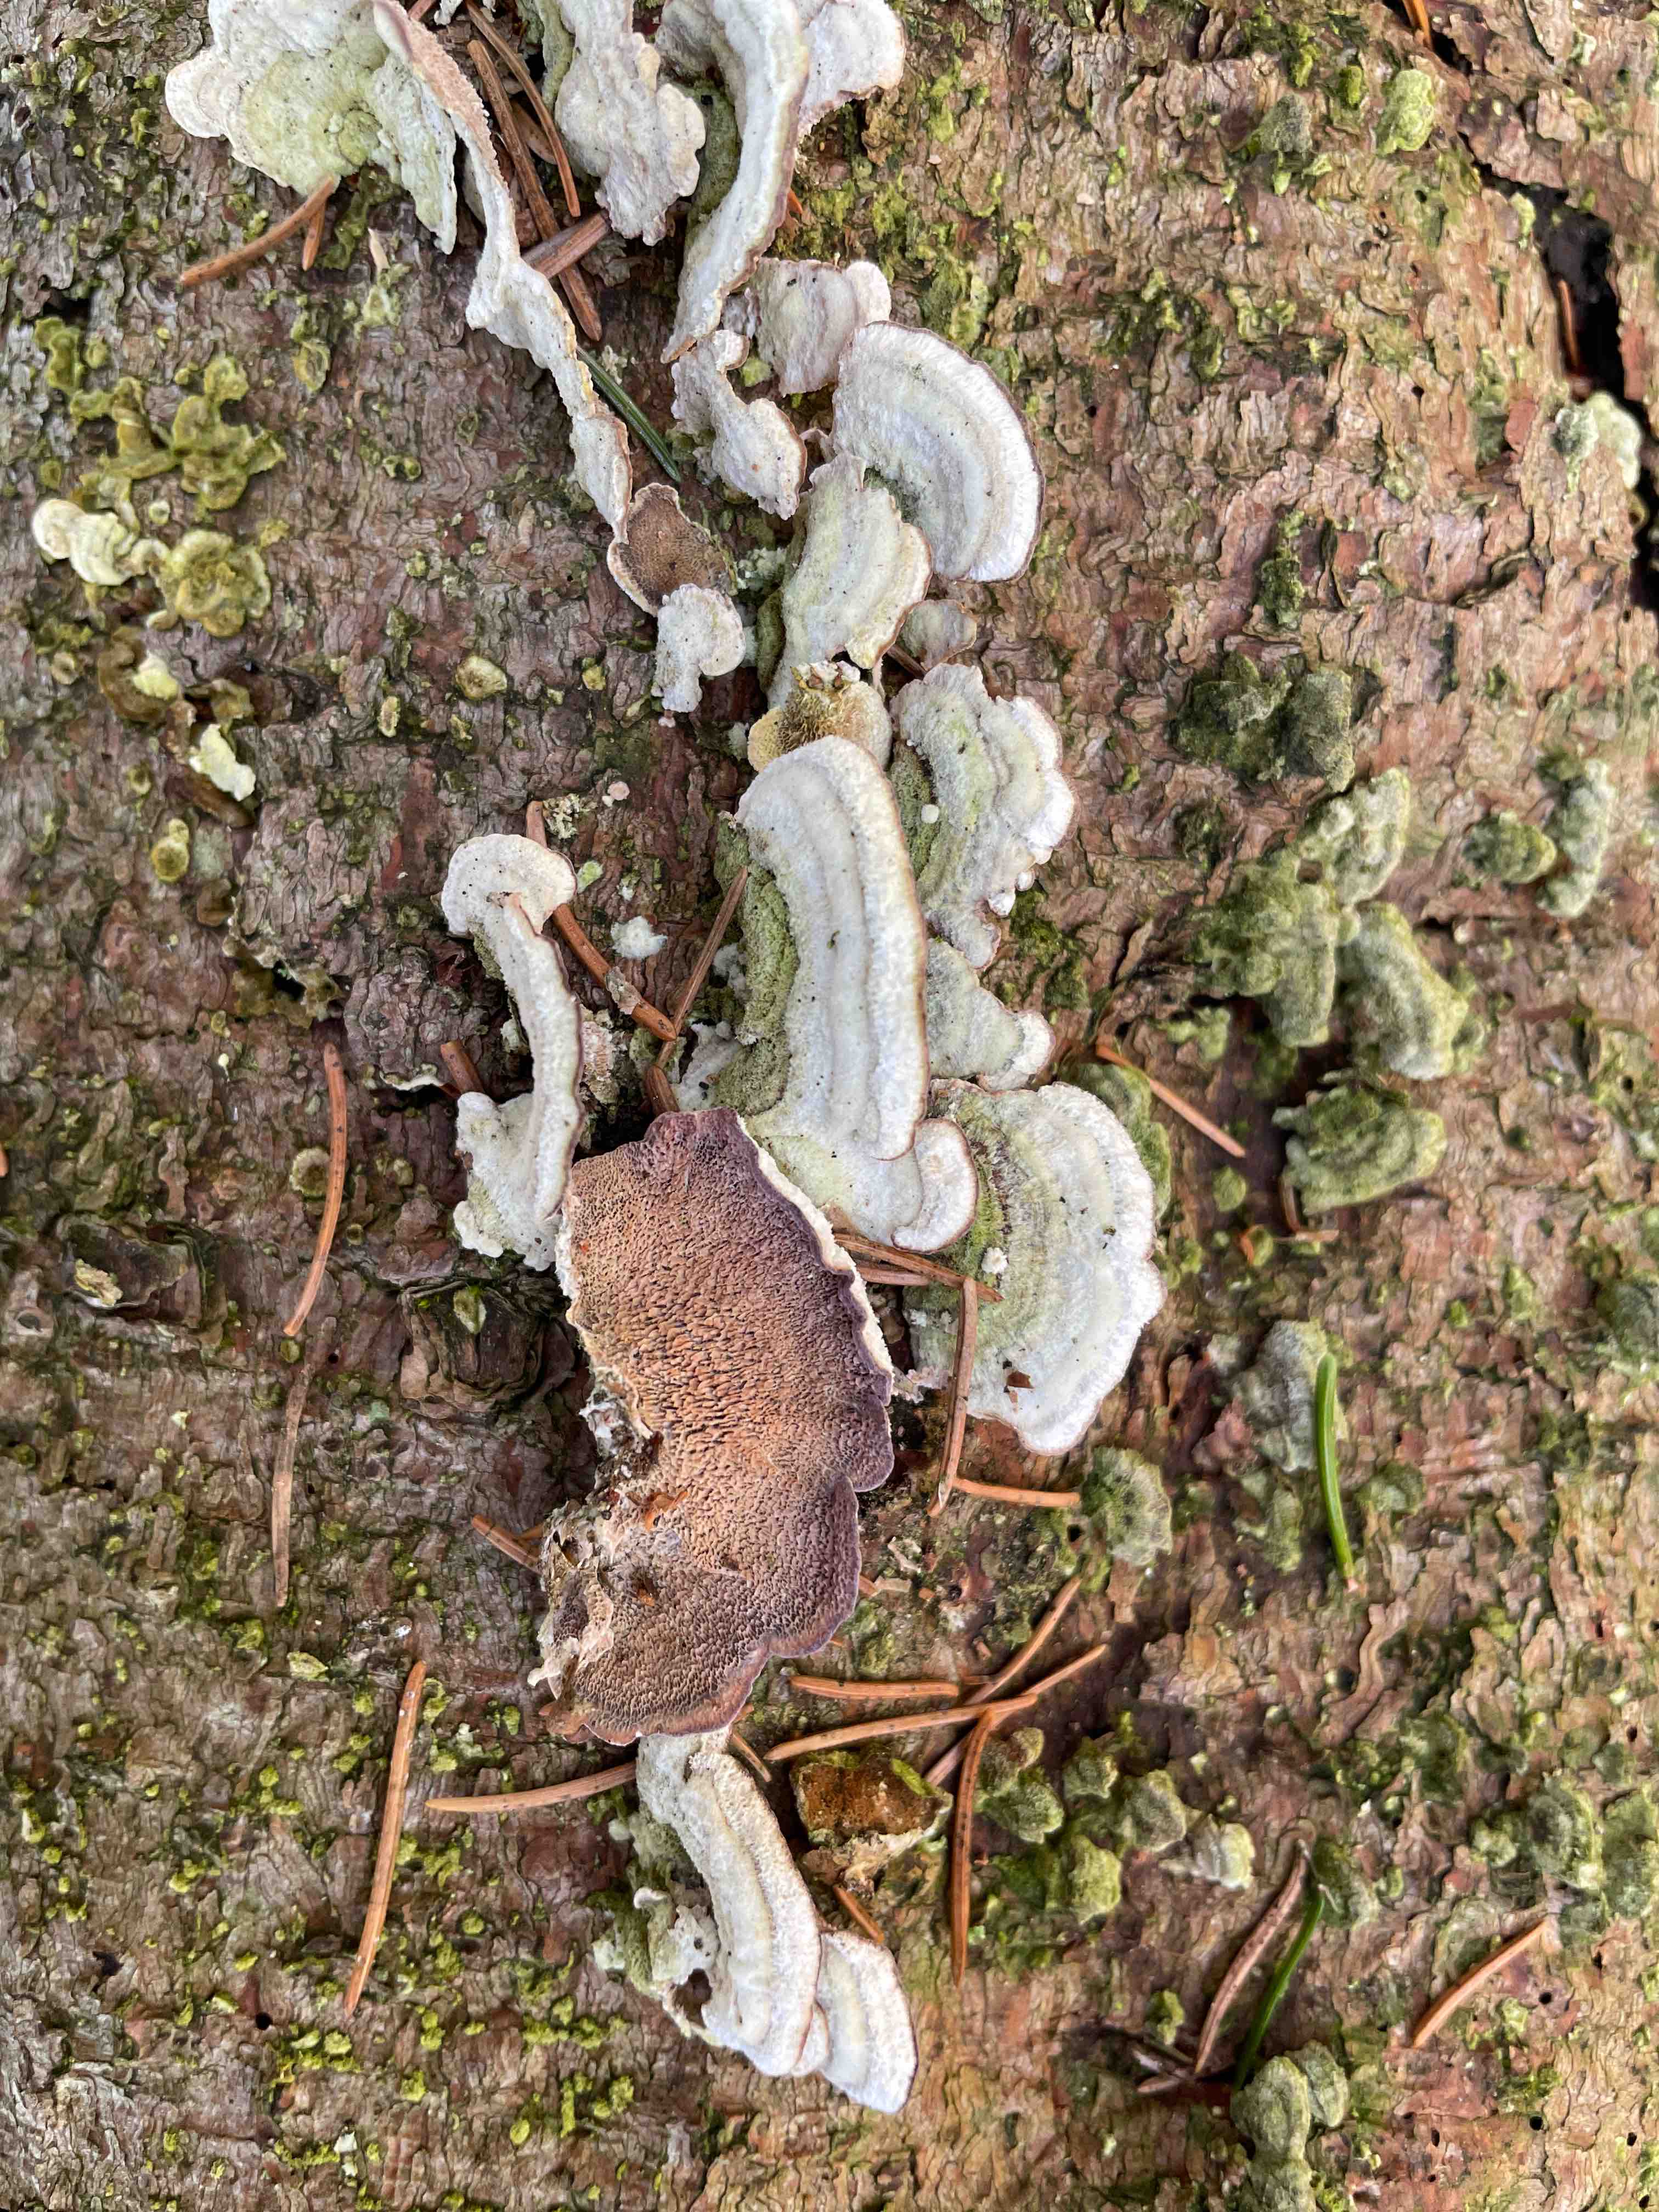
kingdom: Fungi
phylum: Basidiomycota
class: Agaricomycetes
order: Hymenochaetales
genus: Trichaptum
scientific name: Trichaptum abietinum
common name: almindelig violporesvamp
